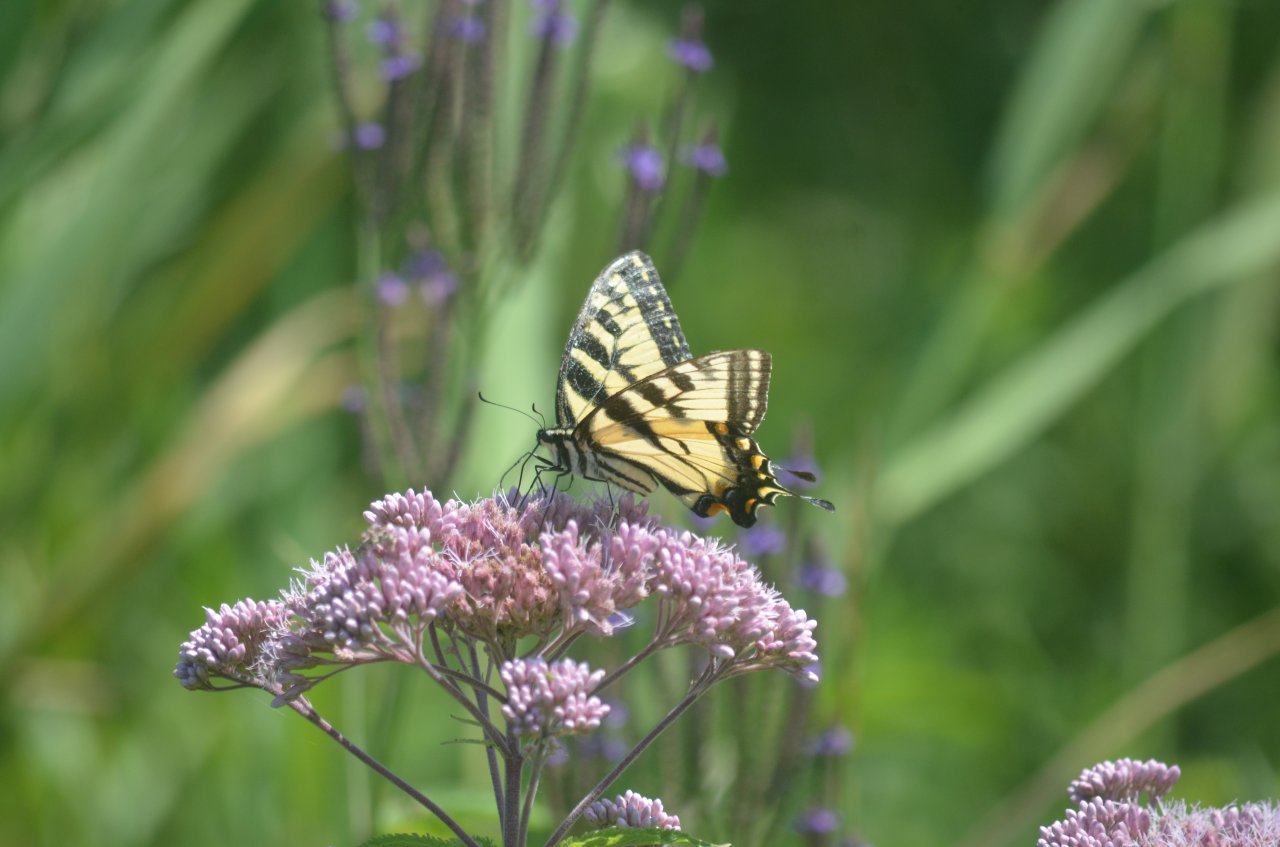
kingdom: Animalia
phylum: Arthropoda
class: Insecta
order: Lepidoptera
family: Papilionidae
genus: Pterourus
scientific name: Pterourus glaucus
